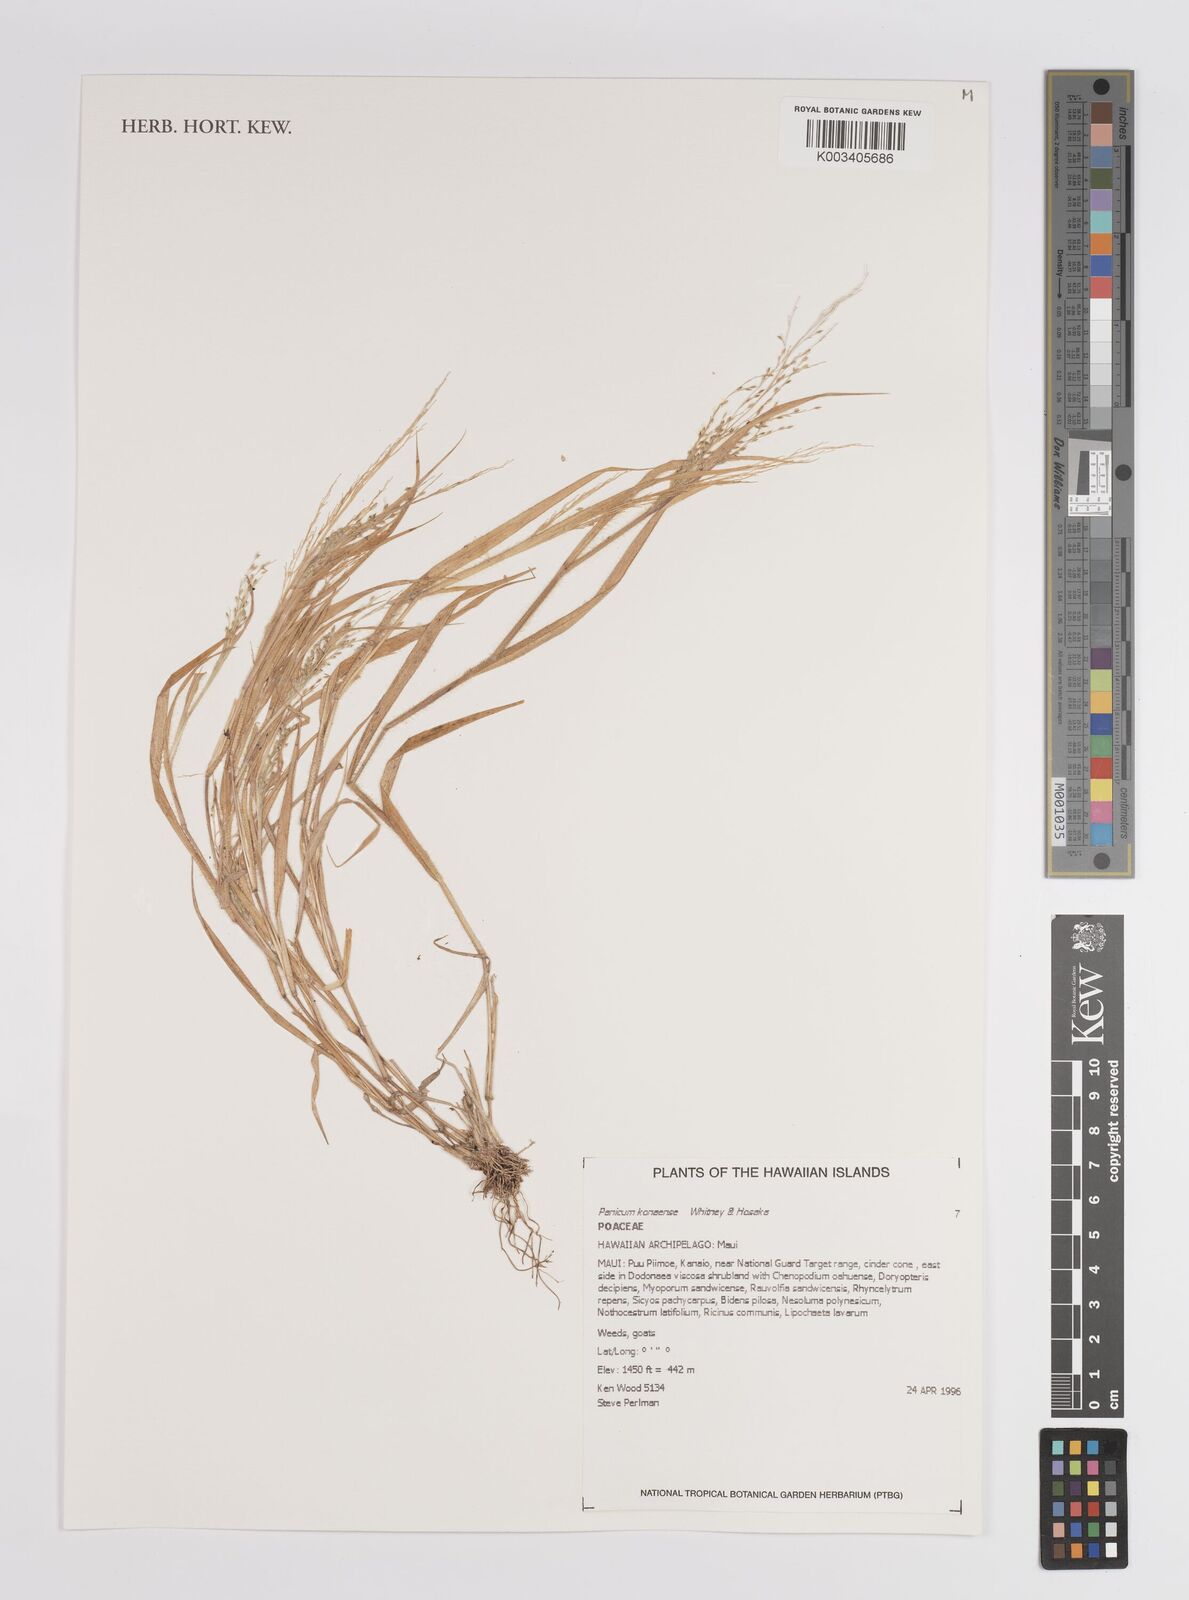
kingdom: Plantae
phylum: Tracheophyta
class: Liliopsida
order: Poales
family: Poaceae
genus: Panicum
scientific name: Panicum konaense
